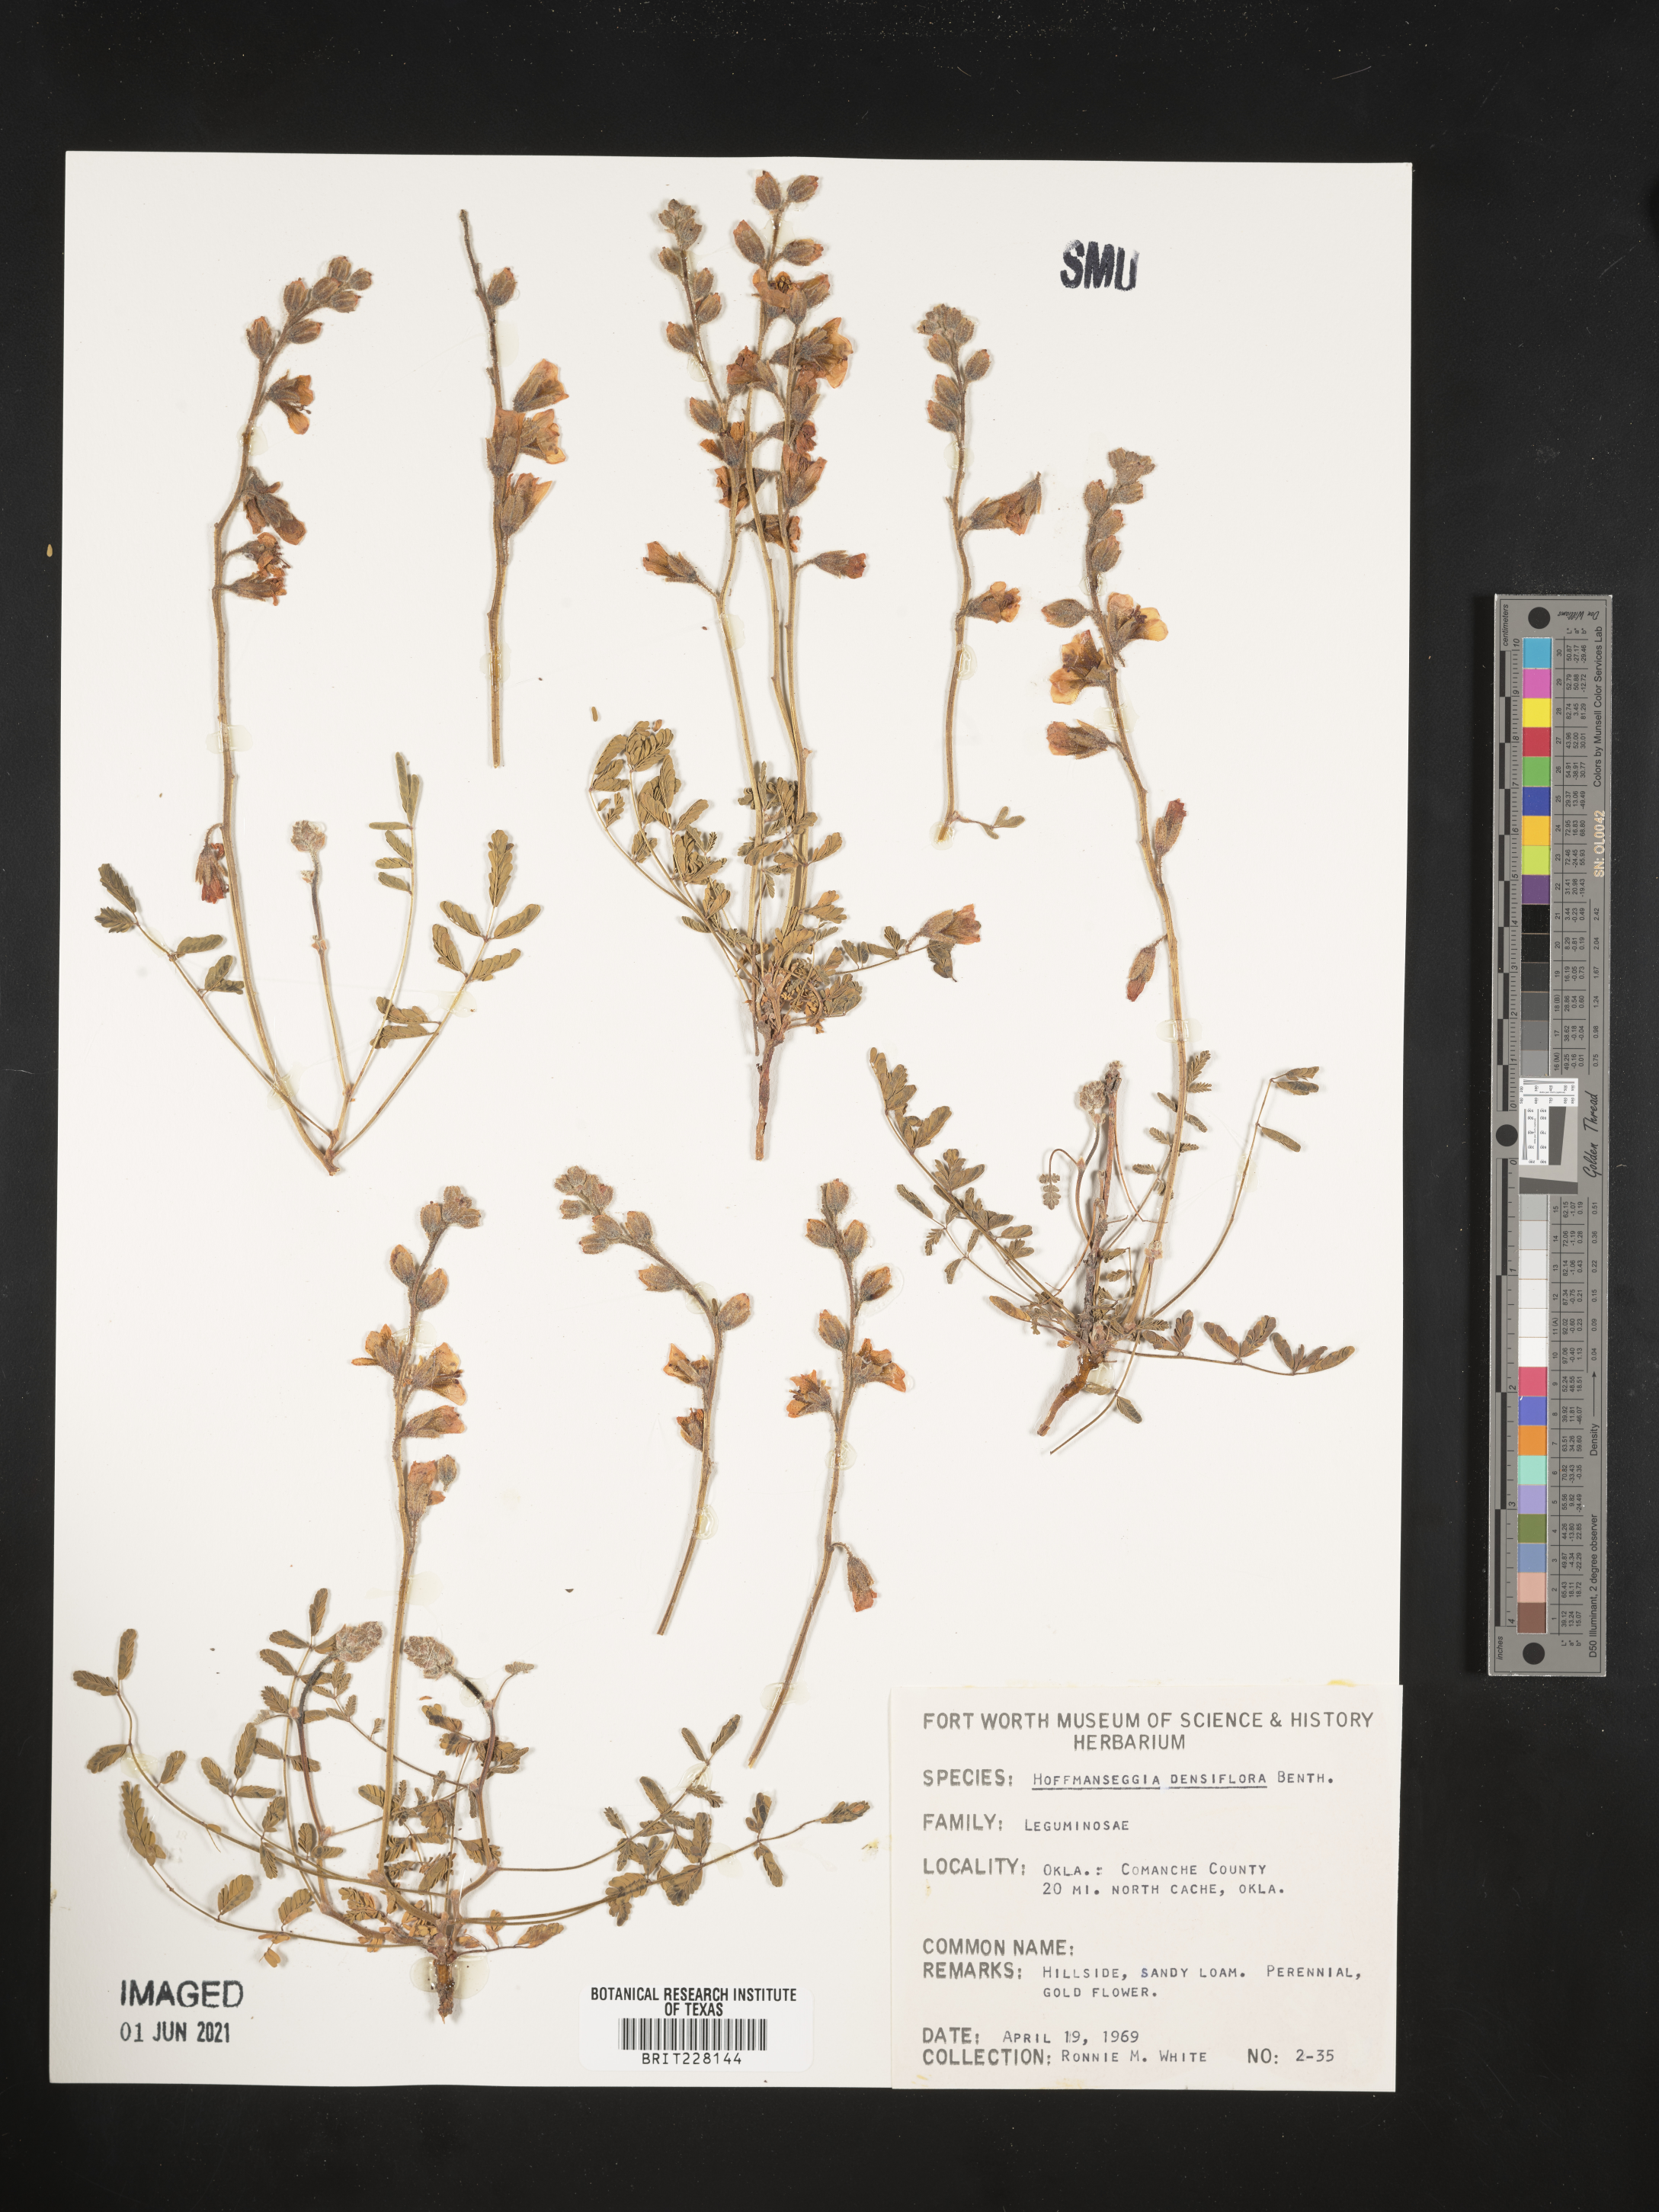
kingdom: Plantae
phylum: Tracheophyta
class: Magnoliopsida
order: Fabales
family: Fabaceae
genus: Hoffmannseggia
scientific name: Hoffmannseggia glauca
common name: Pignut
